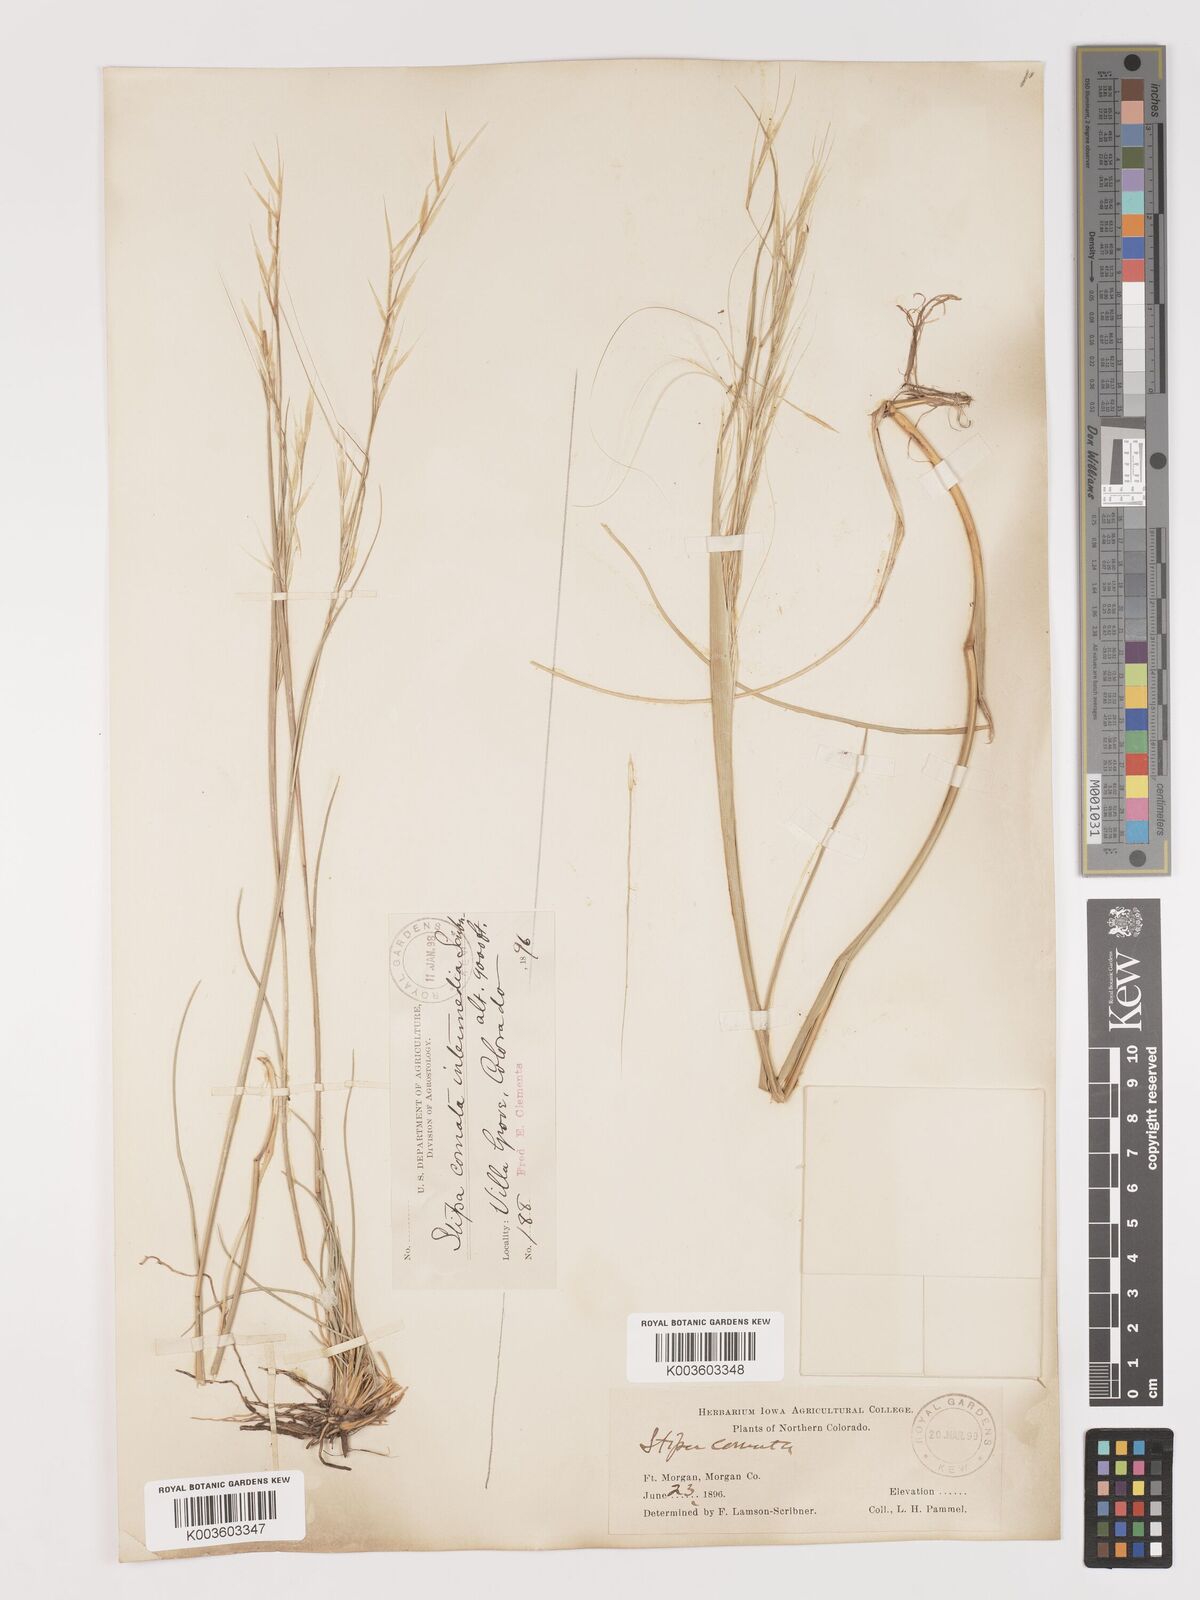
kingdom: Plantae
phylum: Tracheophyta
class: Liliopsida
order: Poales
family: Poaceae
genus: Hesperostipa
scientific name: Hesperostipa comata
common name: Needle-and-thread grass
